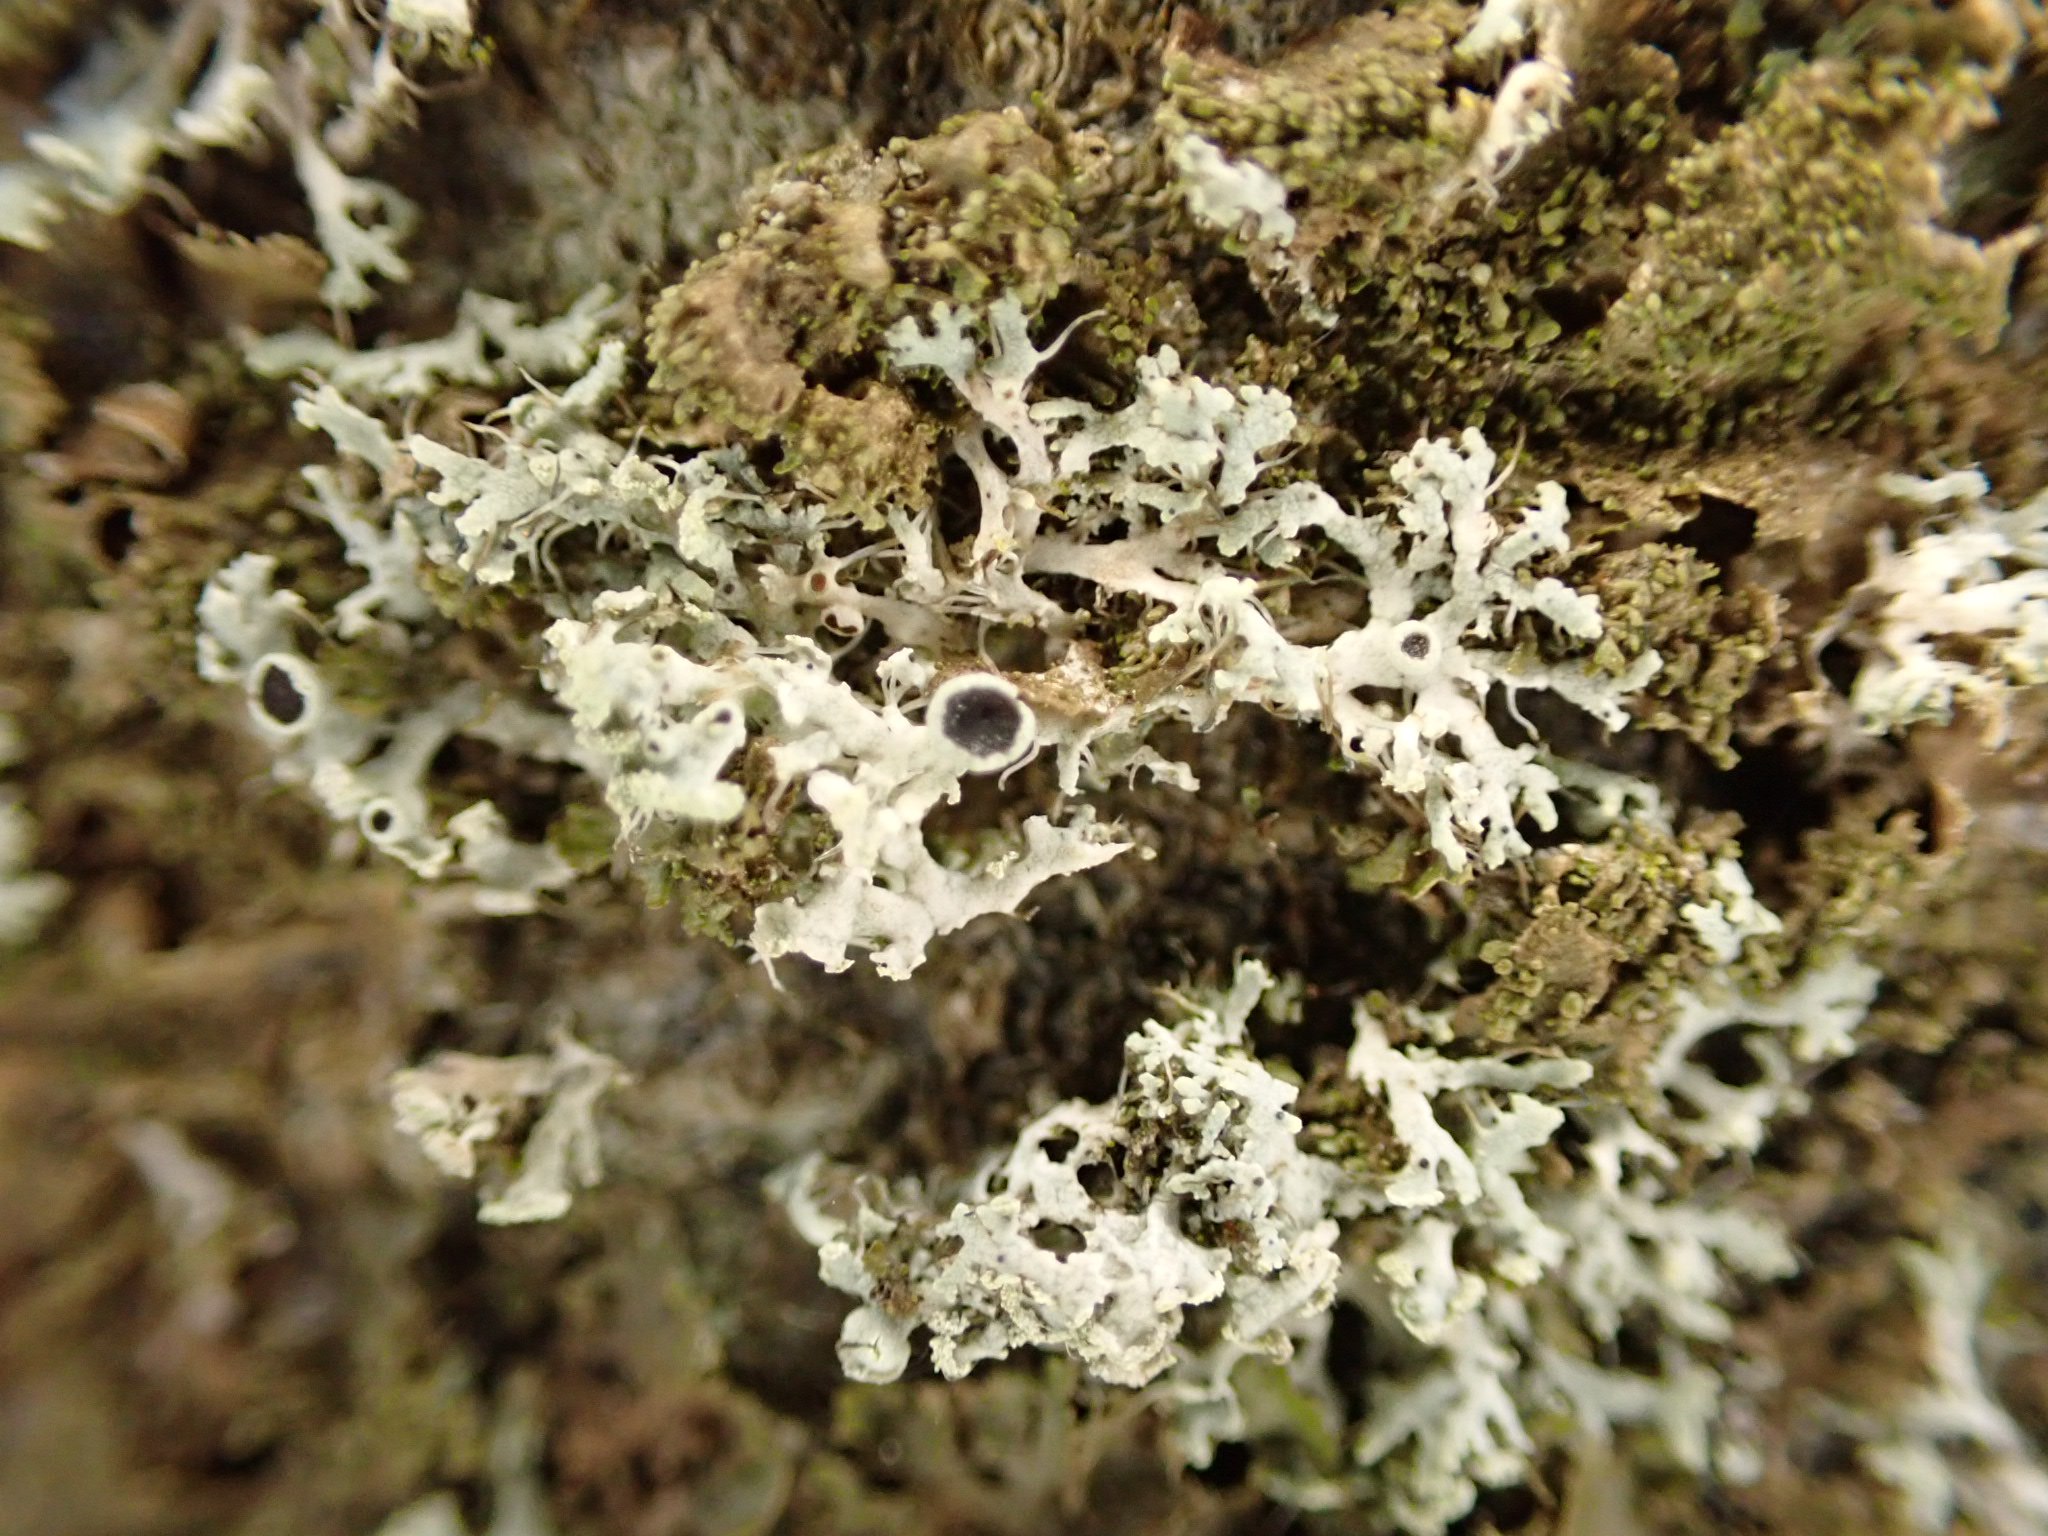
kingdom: Fungi
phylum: Ascomycota
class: Lecanoromycetes
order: Caliciales
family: Physciaceae
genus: Physcia
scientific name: Physcia tenella
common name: spæd rosetlav
